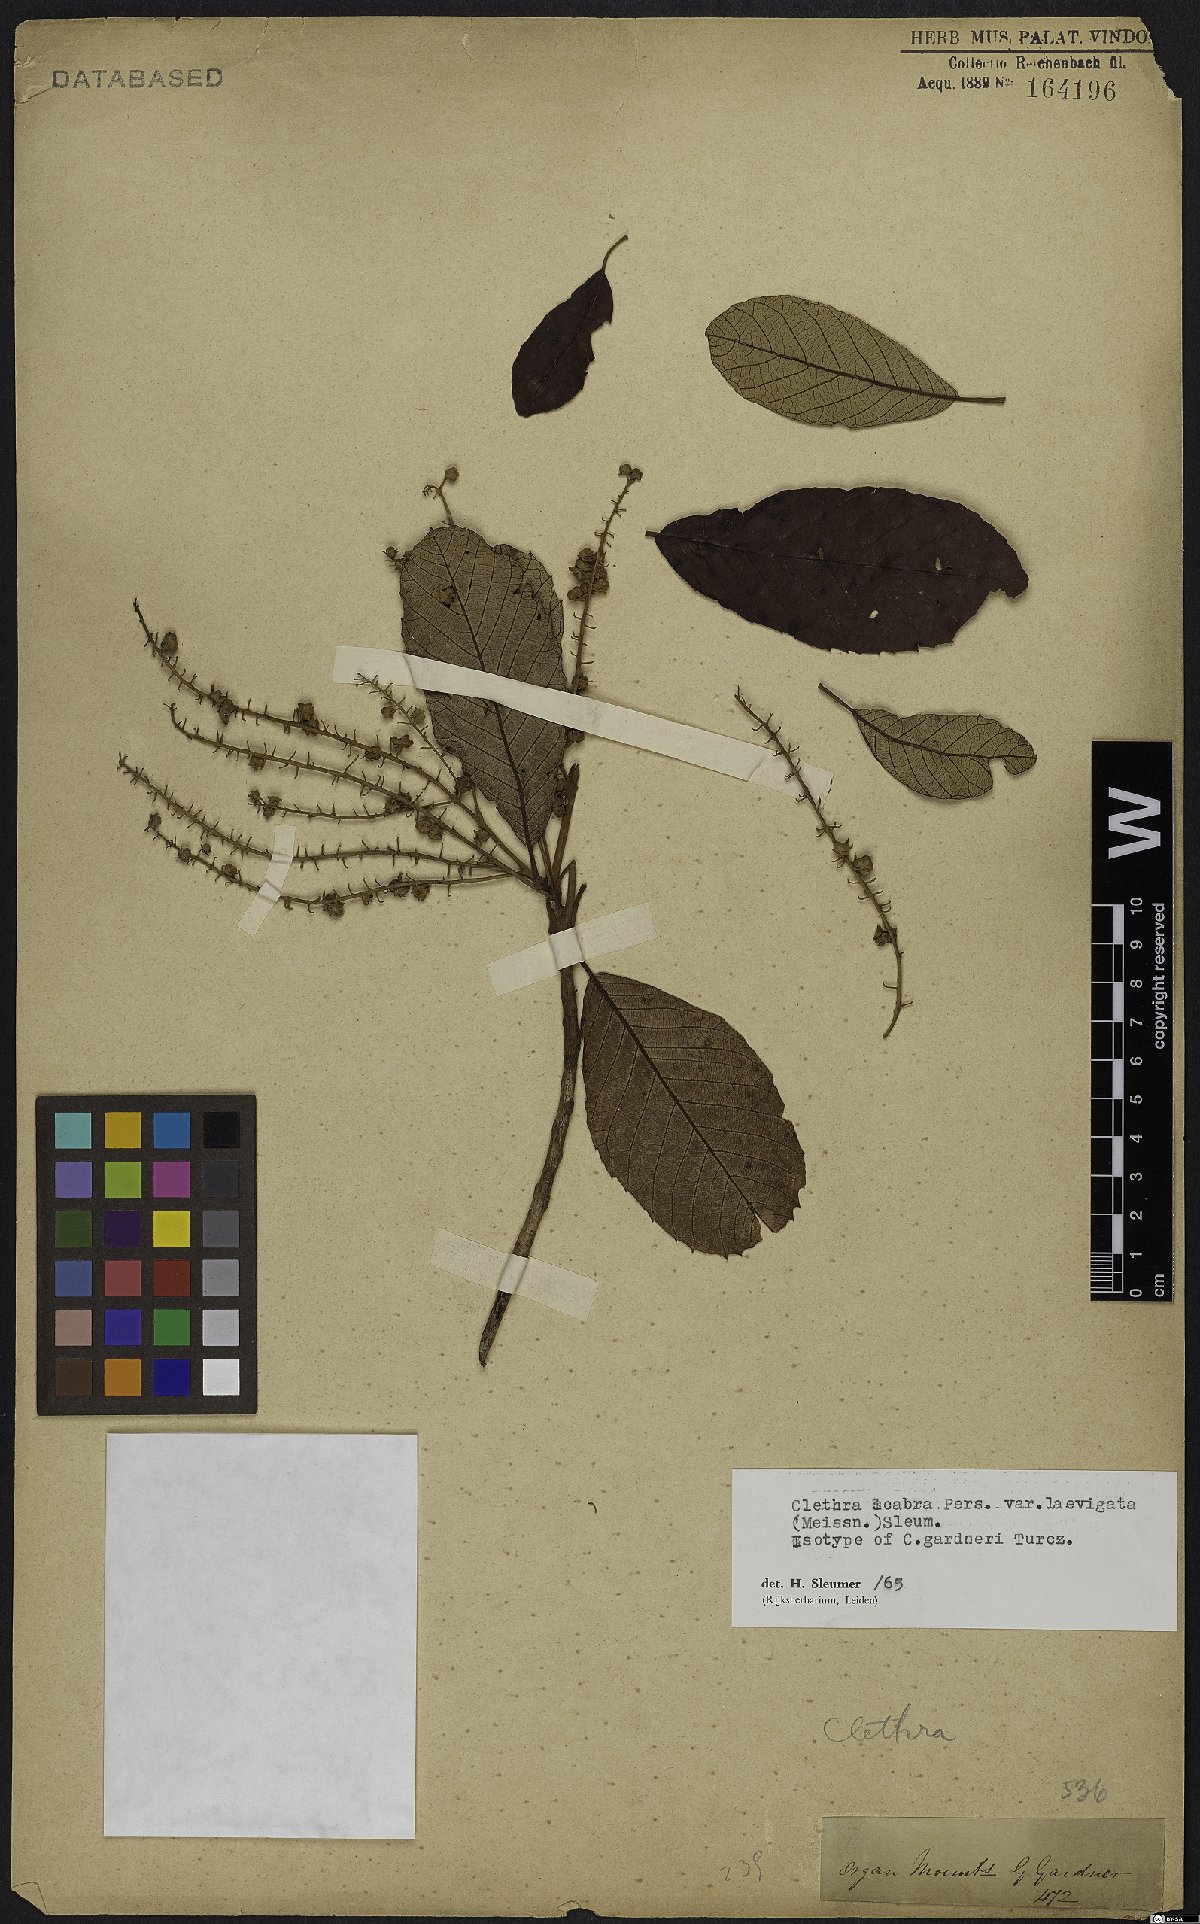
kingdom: Plantae
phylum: Tracheophyta
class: Magnoliopsida
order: Ericales
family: Clethraceae
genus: Clethra
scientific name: Clethra scabra
